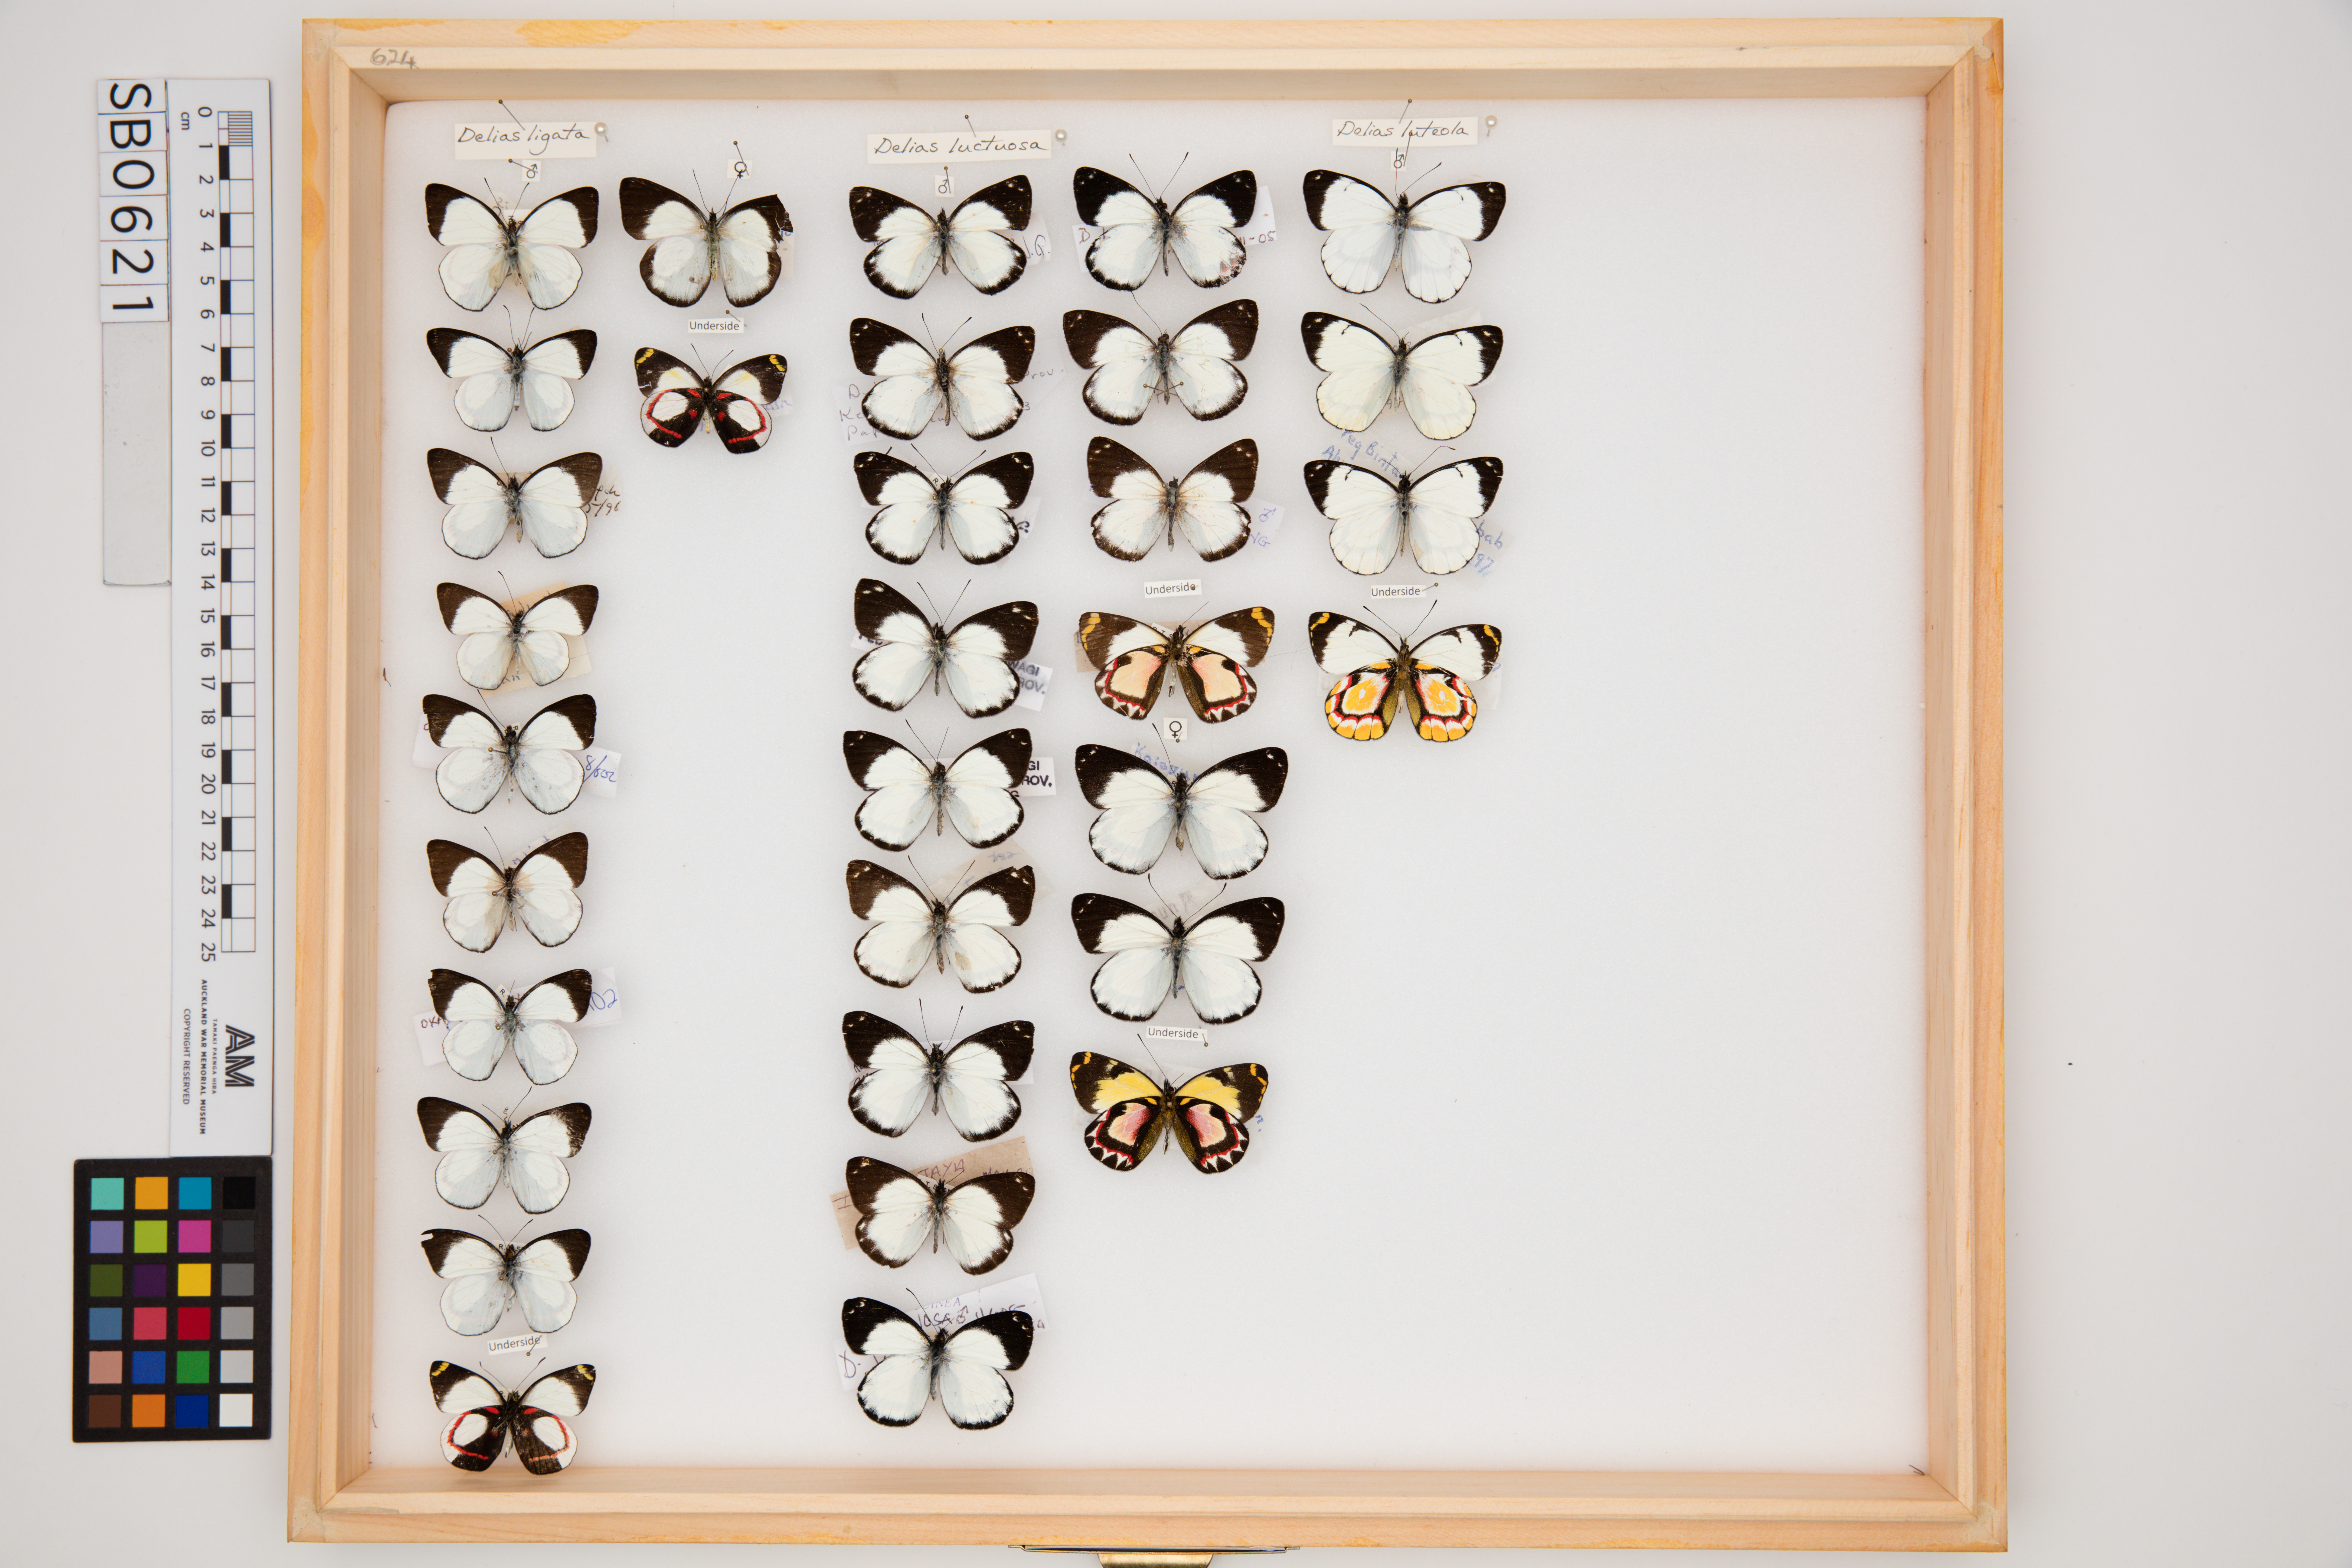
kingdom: Animalia
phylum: Arthropoda
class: Insecta
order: Lepidoptera
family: Pieridae
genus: Delias
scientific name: Delias luctuosa
